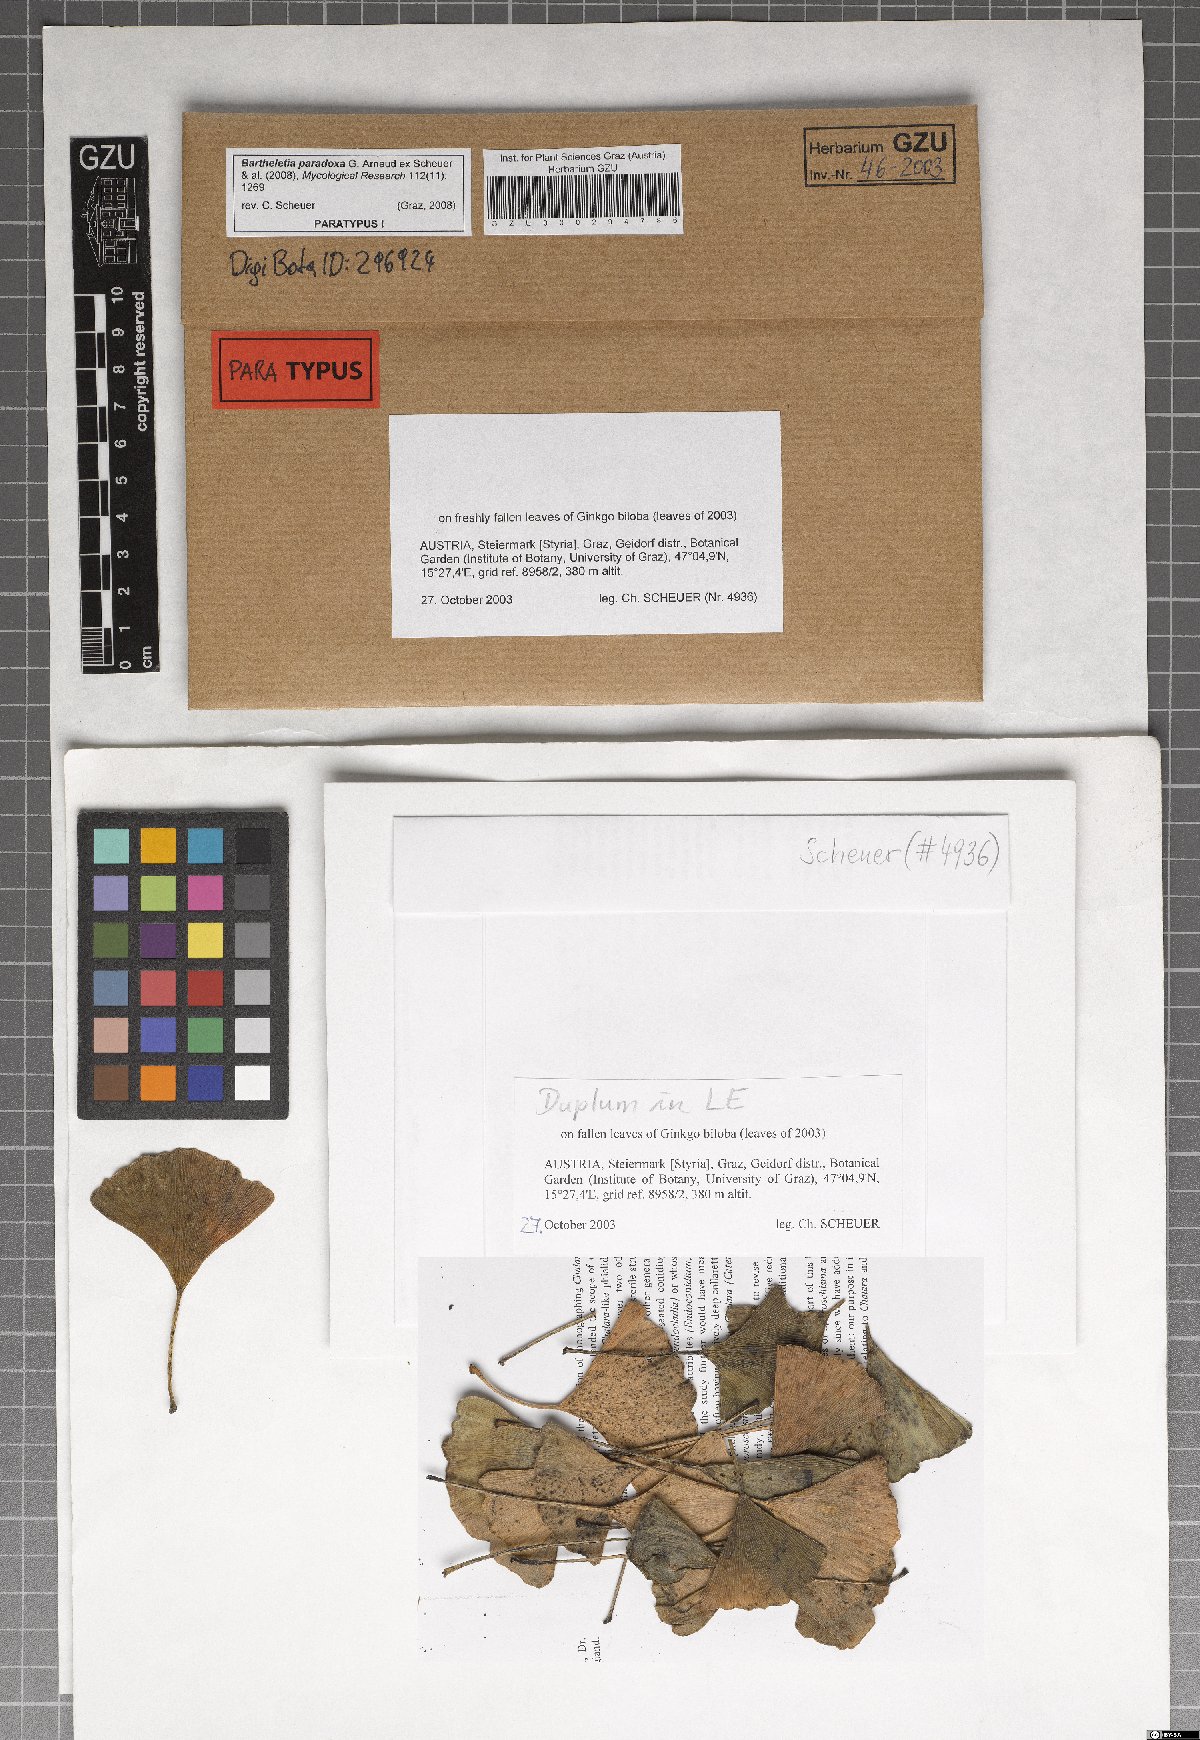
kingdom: Fungi
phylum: Basidiomycota
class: Wallemiomycetes
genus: Bartheletia
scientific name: Bartheletia paradoxa
